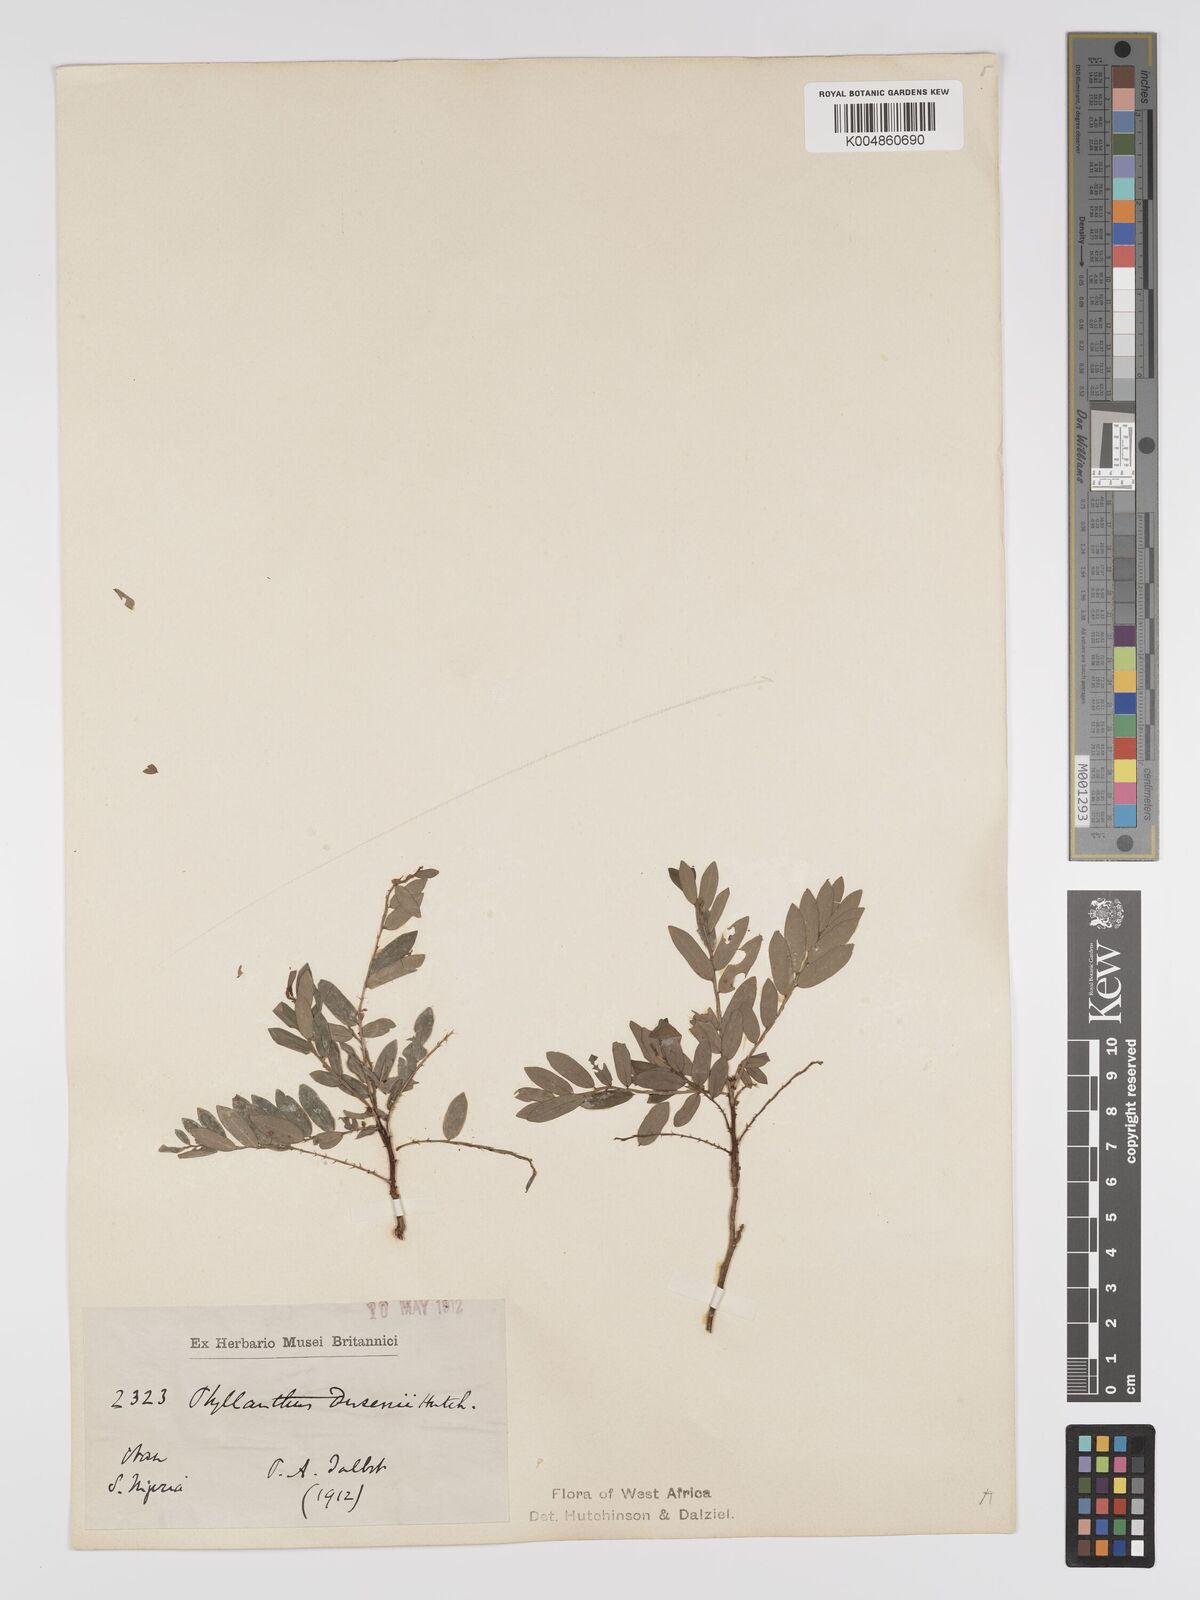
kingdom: Plantae
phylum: Tracheophyta
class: Magnoliopsida
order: Malpighiales
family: Phyllanthaceae
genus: Phyllanthus
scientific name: Phyllanthus dusenii
